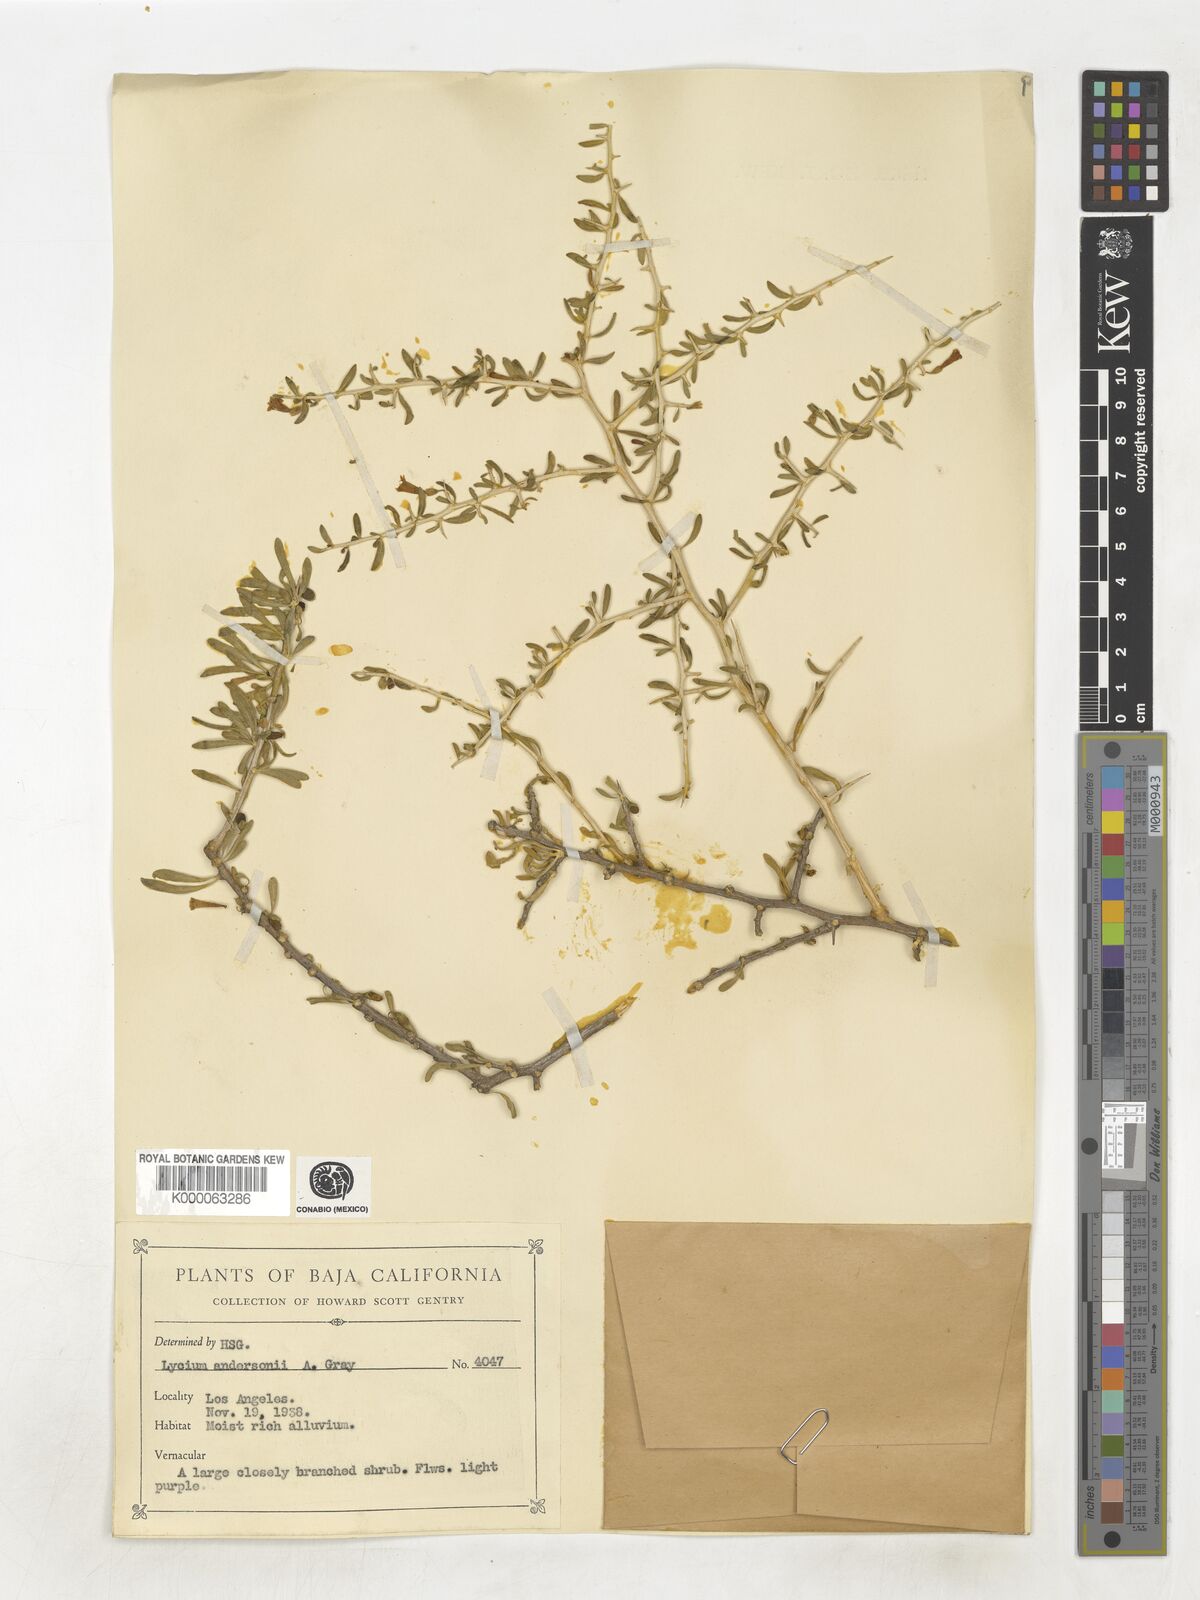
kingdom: Plantae
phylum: Tracheophyta
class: Magnoliopsida
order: Solanales
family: Solanaceae
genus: Lycium
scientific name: Lycium andersonii
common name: Water-jacket
